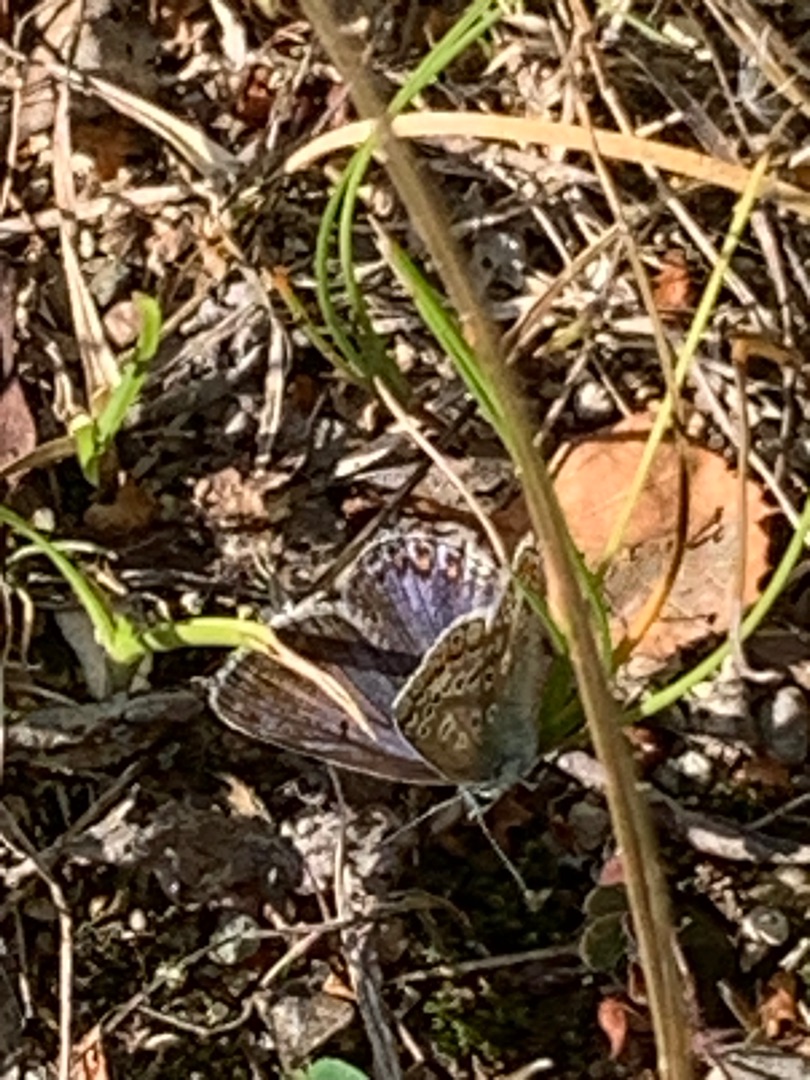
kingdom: Animalia
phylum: Arthropoda
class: Insecta
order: Lepidoptera
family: Lycaenidae
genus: Polyommatus
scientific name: Polyommatus icarus
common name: Almindelig blåfugl
